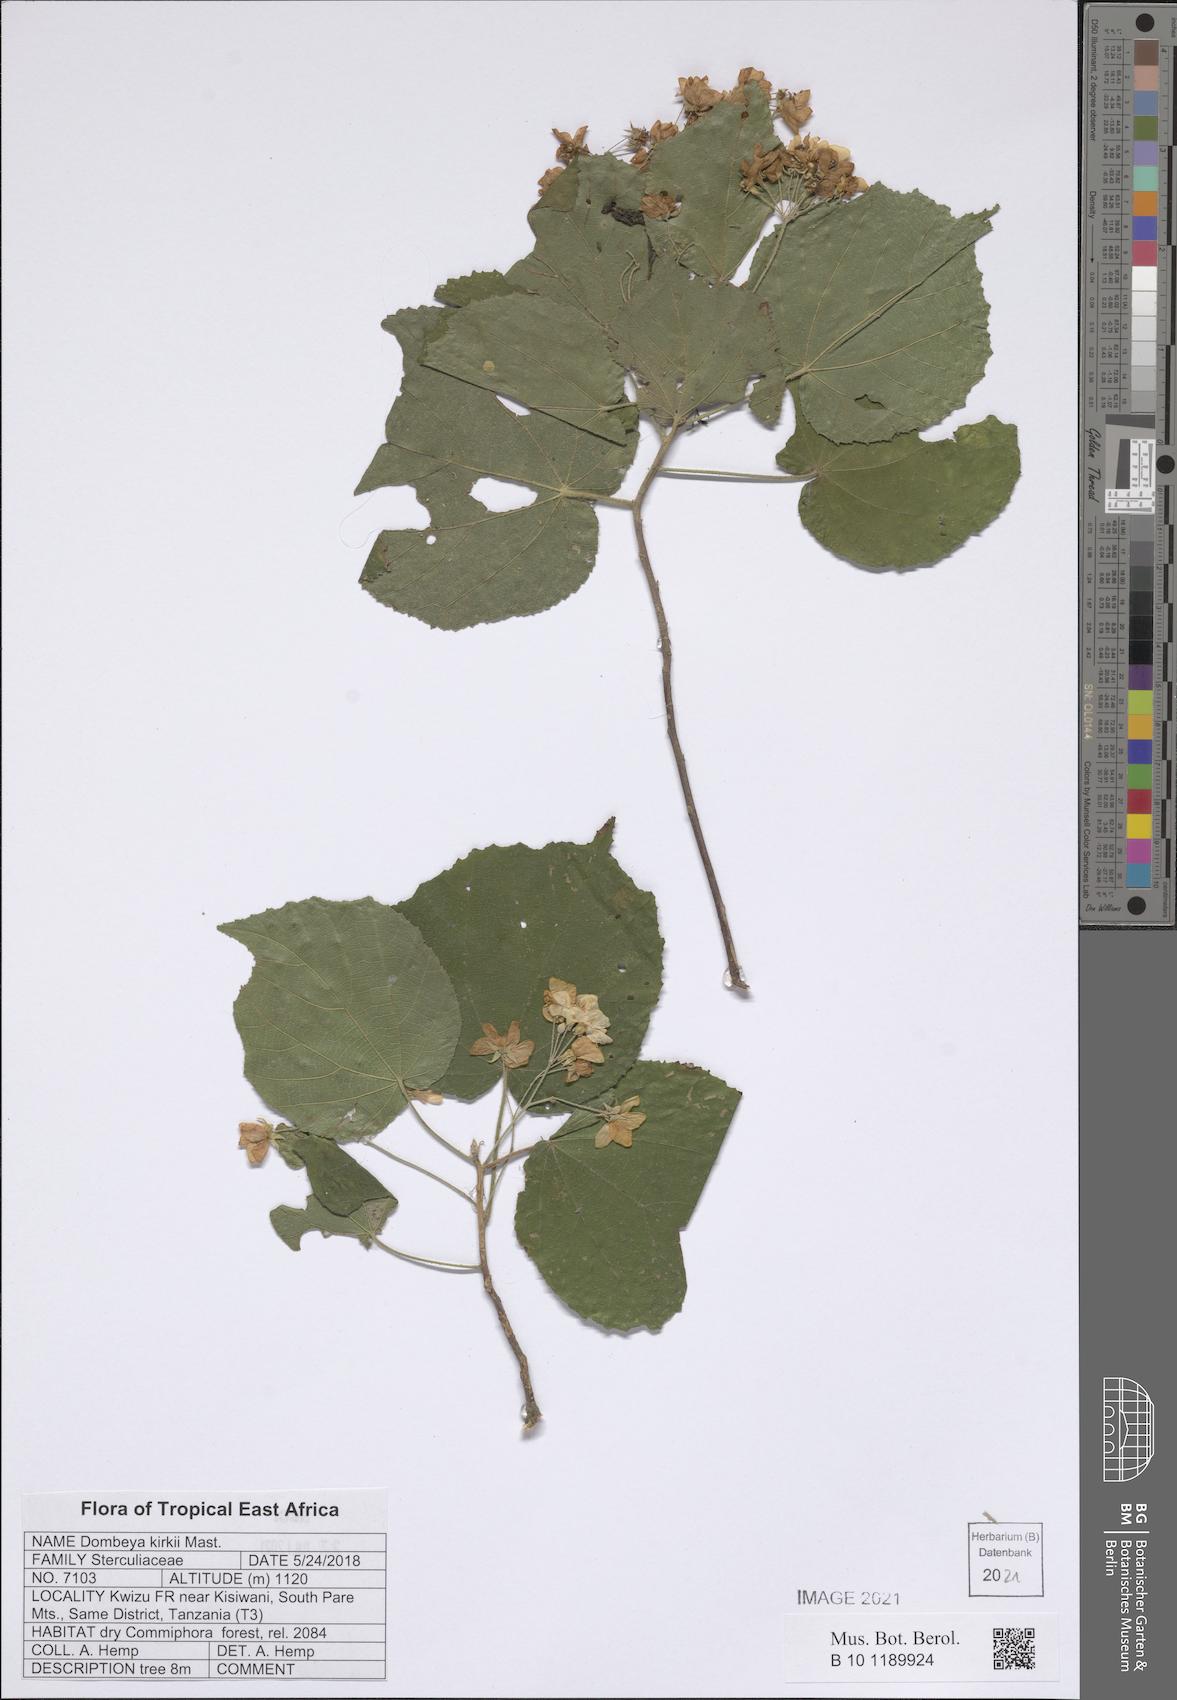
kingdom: Plantae
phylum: Tracheophyta
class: Magnoliopsida
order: Malvales
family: Malvaceae
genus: Dombeya
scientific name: Dombeya kirkii
